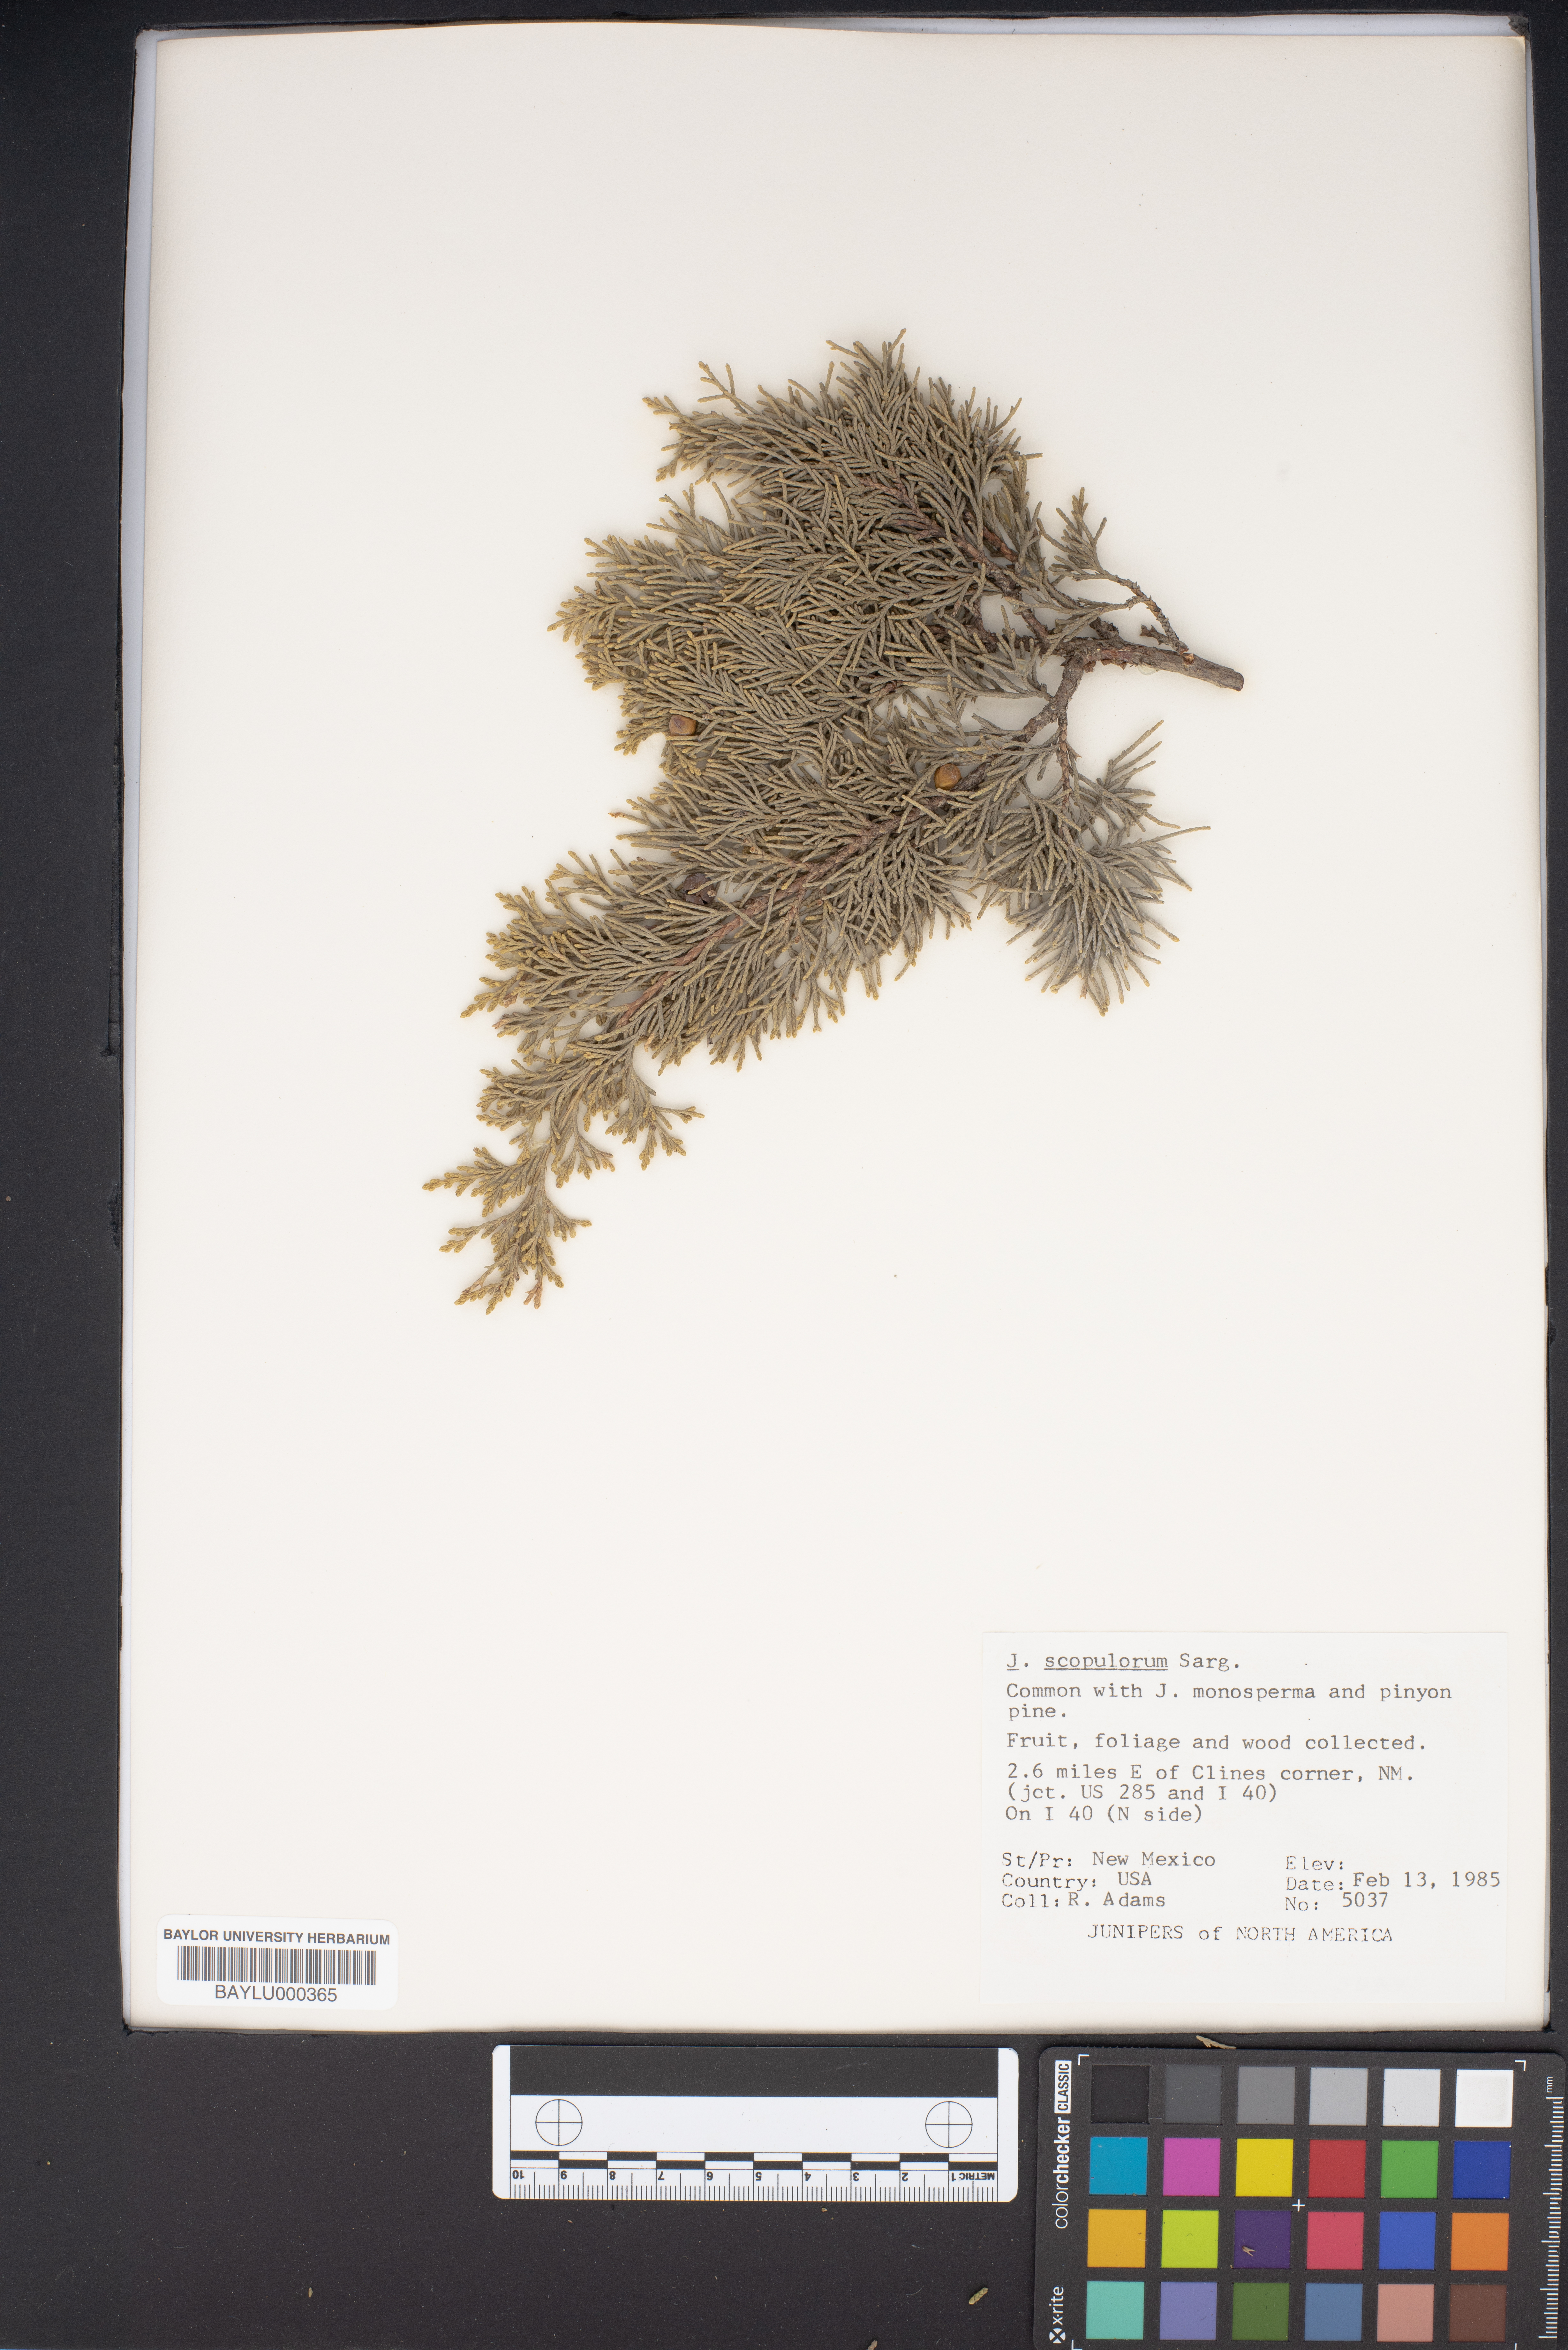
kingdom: Plantae
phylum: Tracheophyta
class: Pinopsida
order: Pinales
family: Cupressaceae
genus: Juniperus
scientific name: Juniperus scopulorum
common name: Rocky mountain juniper
